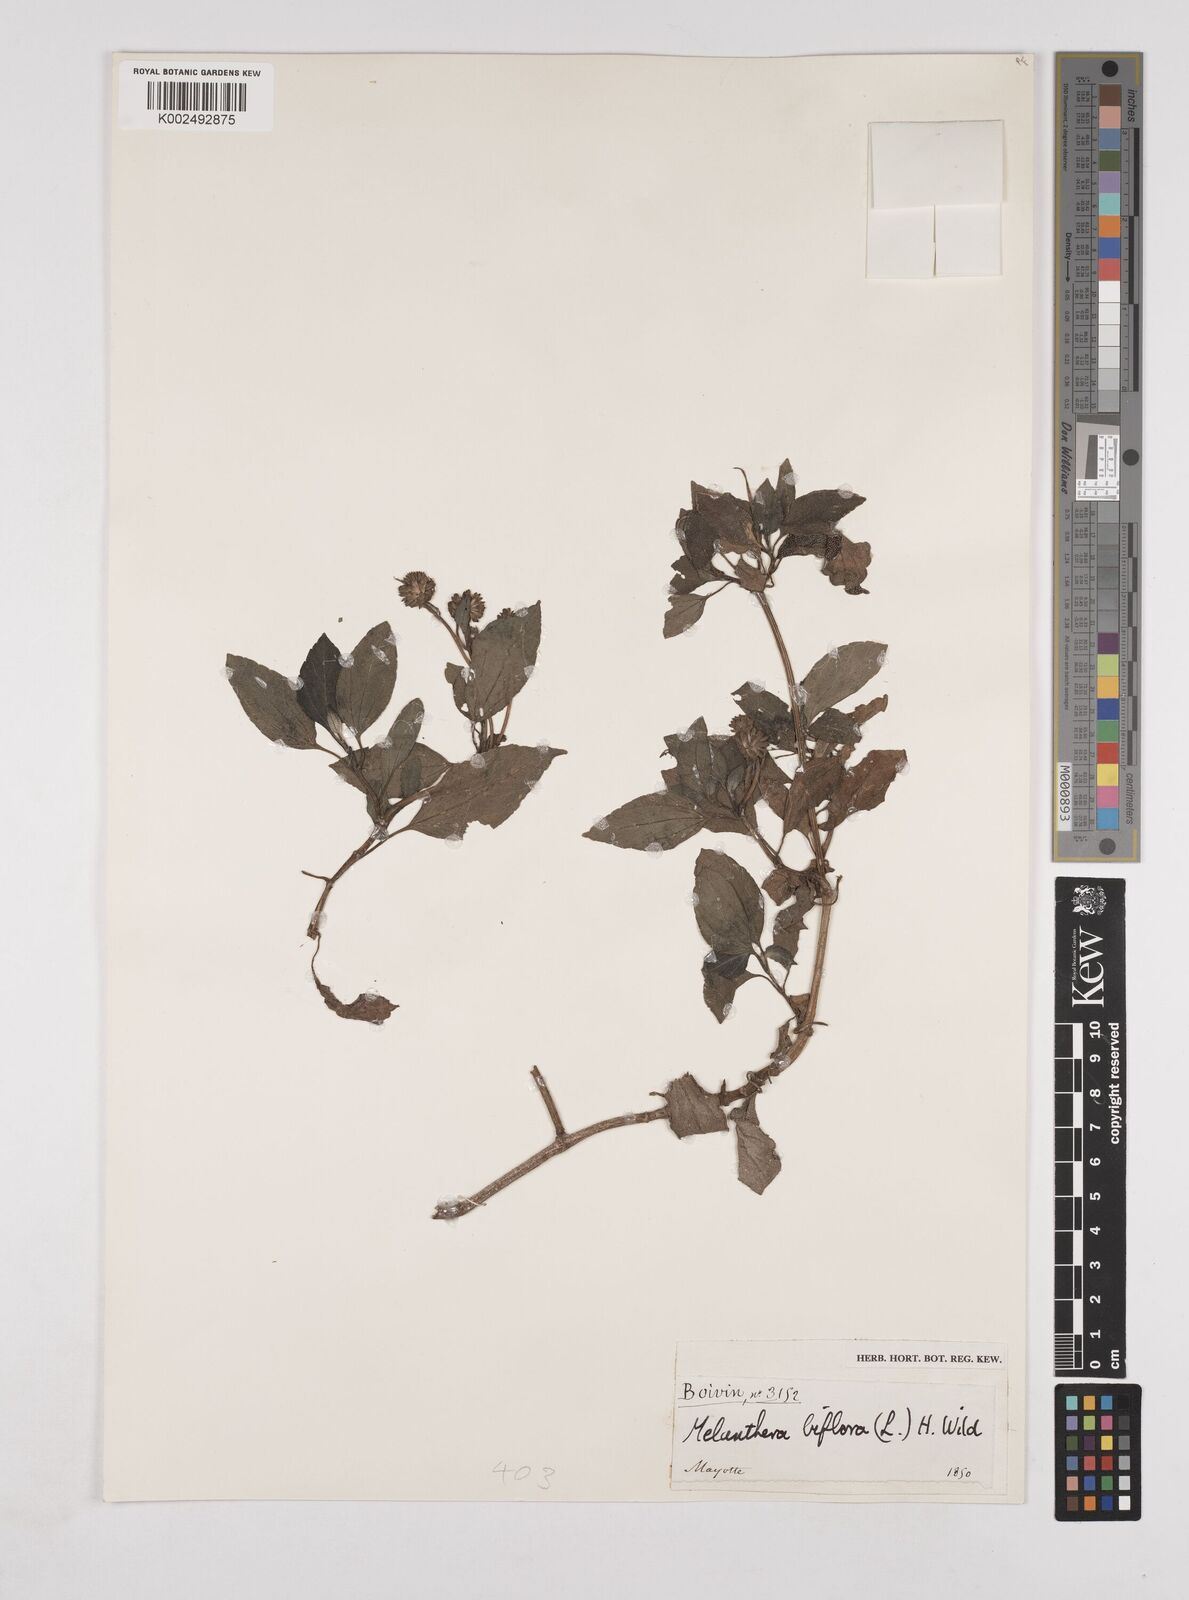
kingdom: Plantae
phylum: Tracheophyta
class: Magnoliopsida
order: Asterales
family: Asteraceae
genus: Wollastonia
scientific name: Wollastonia biflora
